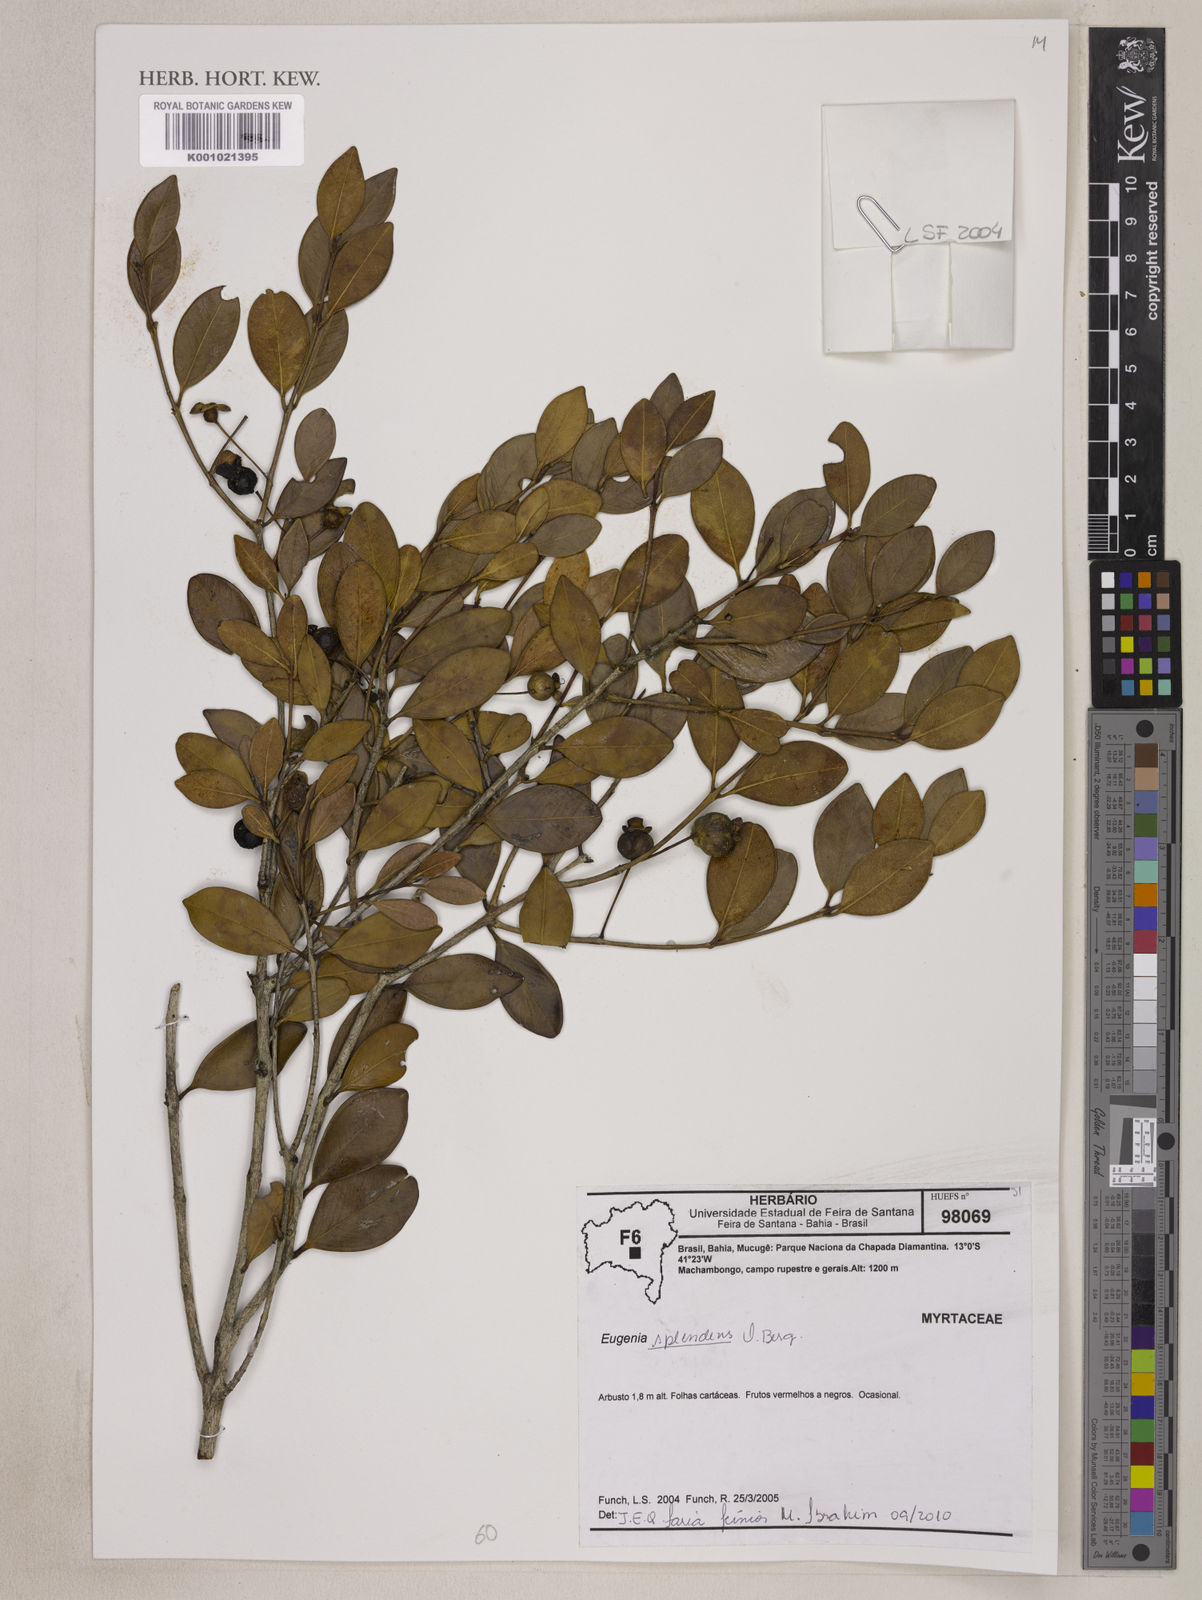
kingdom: Plantae
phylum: Tracheophyta
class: Magnoliopsida
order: Myrtales
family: Myrtaceae
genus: Eugenia
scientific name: Eugenia splendens
